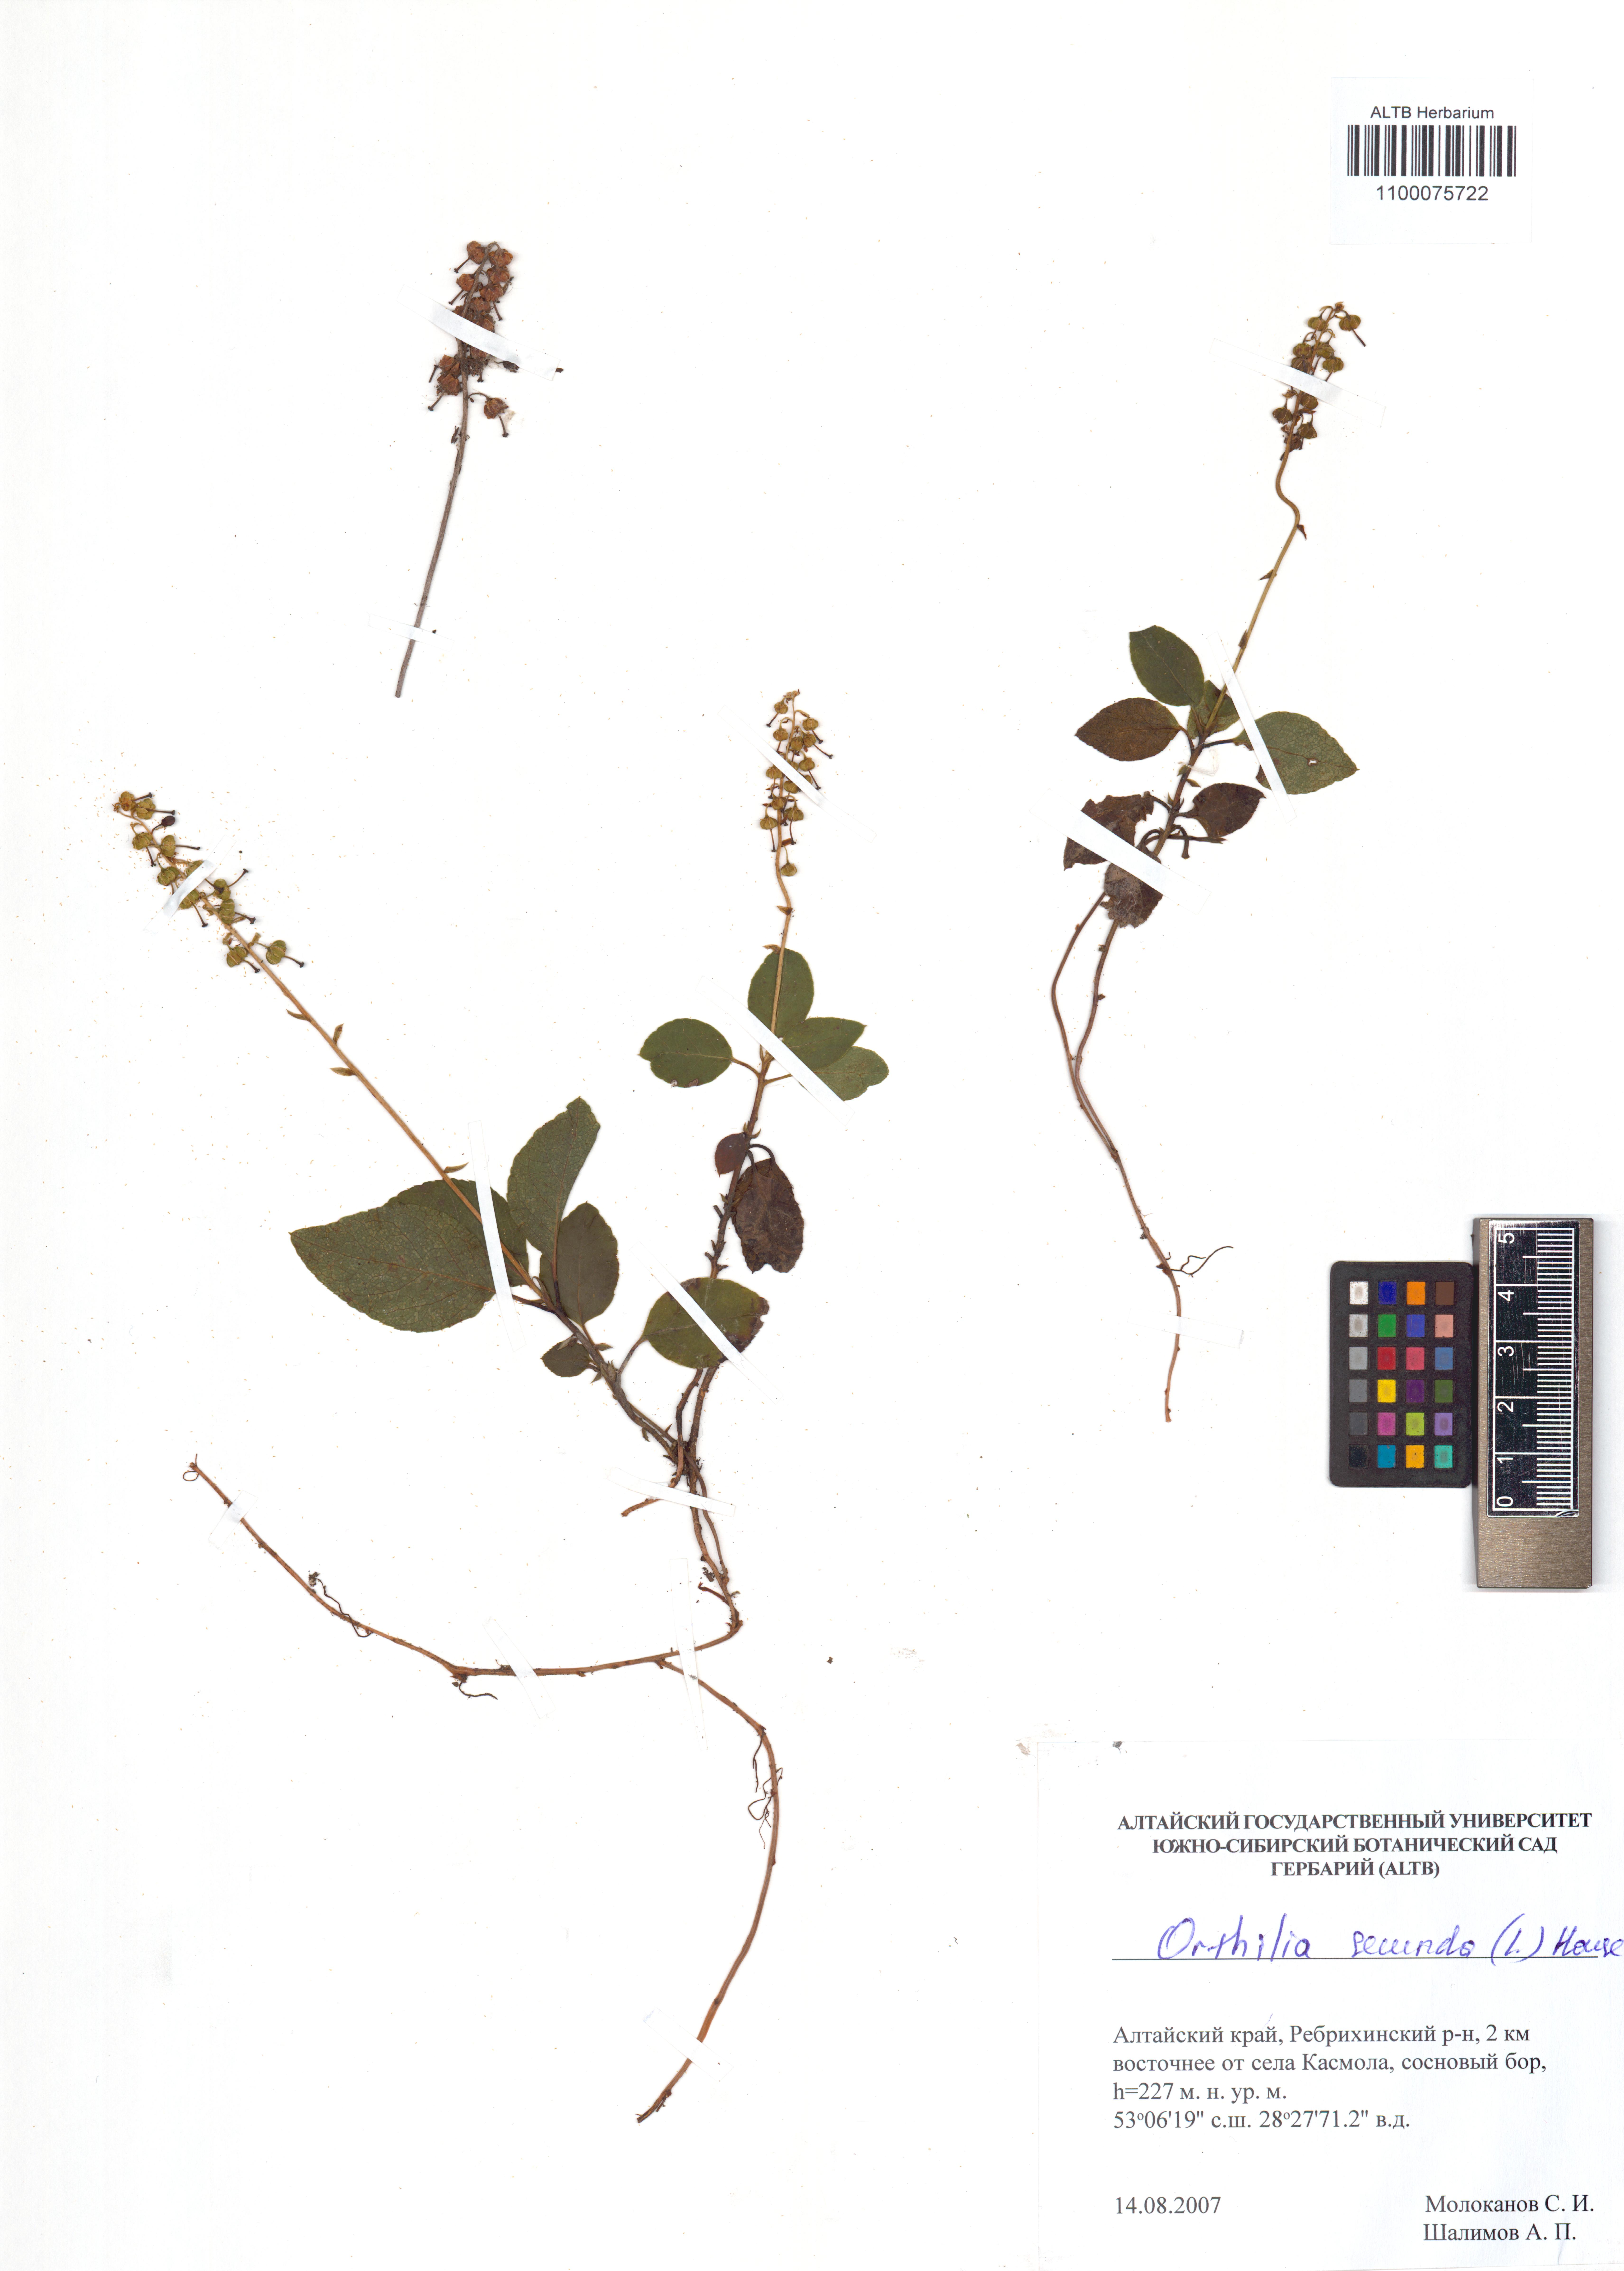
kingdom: Plantae
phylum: Tracheophyta
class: Magnoliopsida
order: Ericales
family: Ericaceae
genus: Orthilia
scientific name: Orthilia secunda
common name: One-sided orthilia
